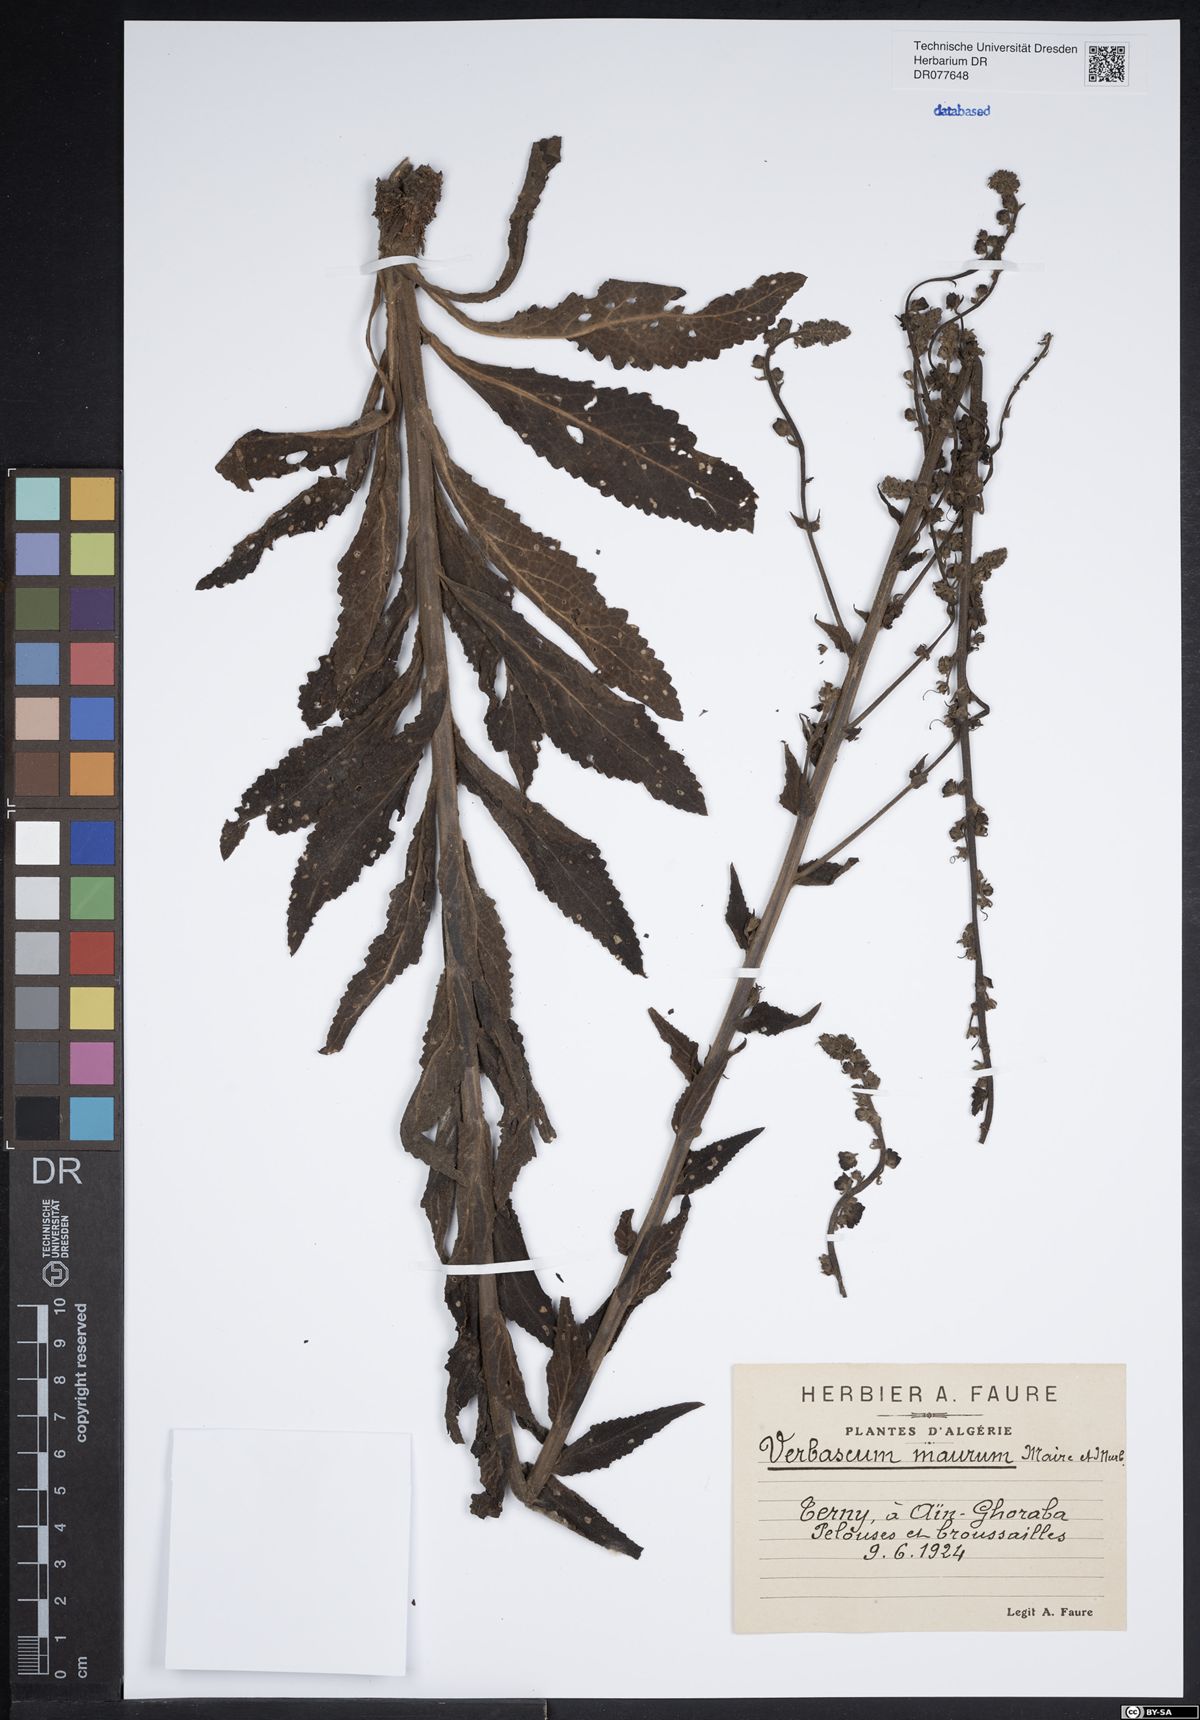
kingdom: Plantae
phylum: Tracheophyta
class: Magnoliopsida
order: Lamiales
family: Scrophulariaceae
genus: Verbascum
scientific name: Verbascum maurum
